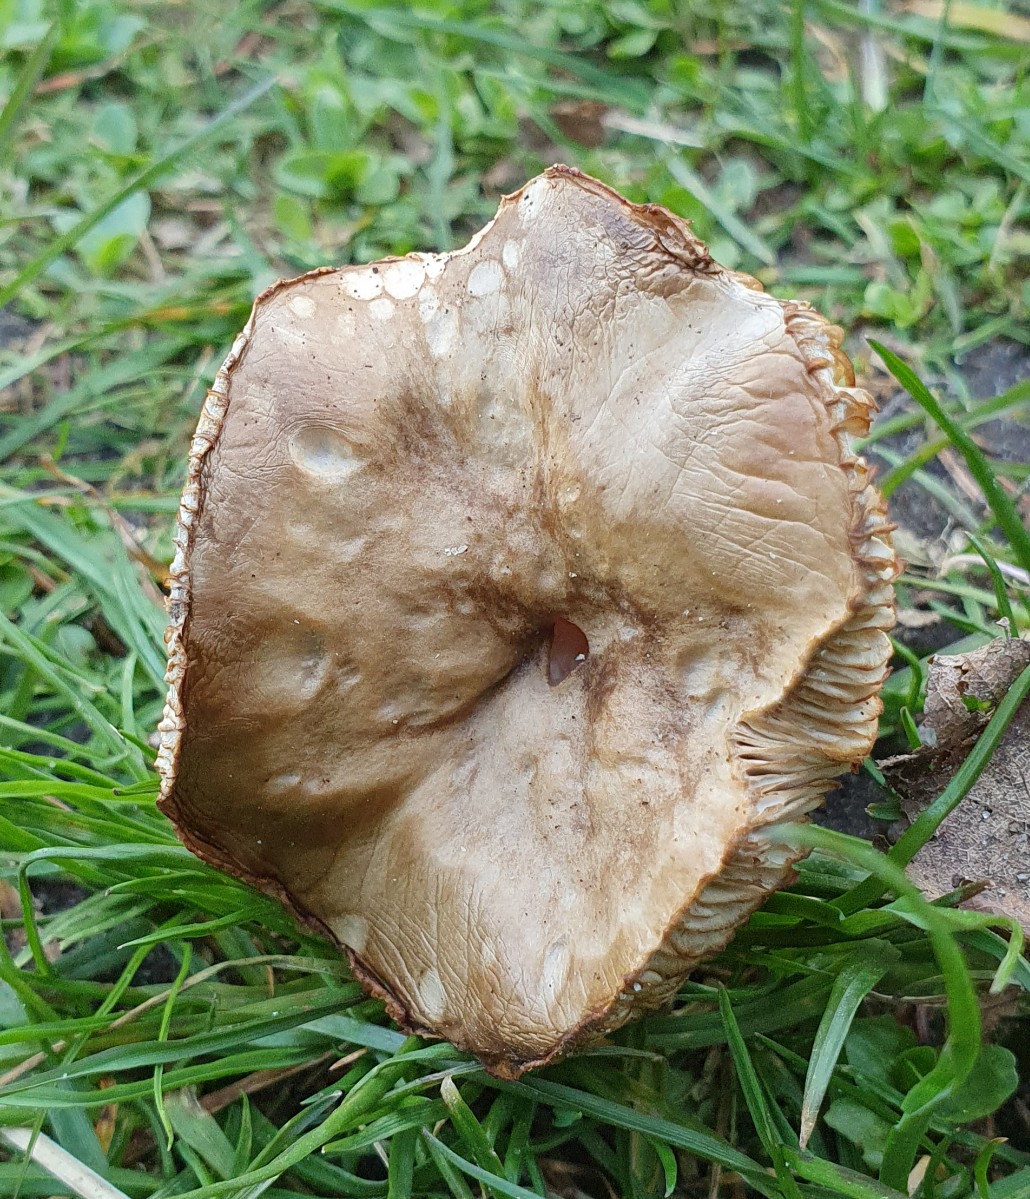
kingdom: Fungi
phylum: Basidiomycota
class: Agaricomycetes
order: Agaricales
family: Tricholomataceae
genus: Melanoleuca
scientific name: Melanoleuca cognata
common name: gyldengrå munkehat
